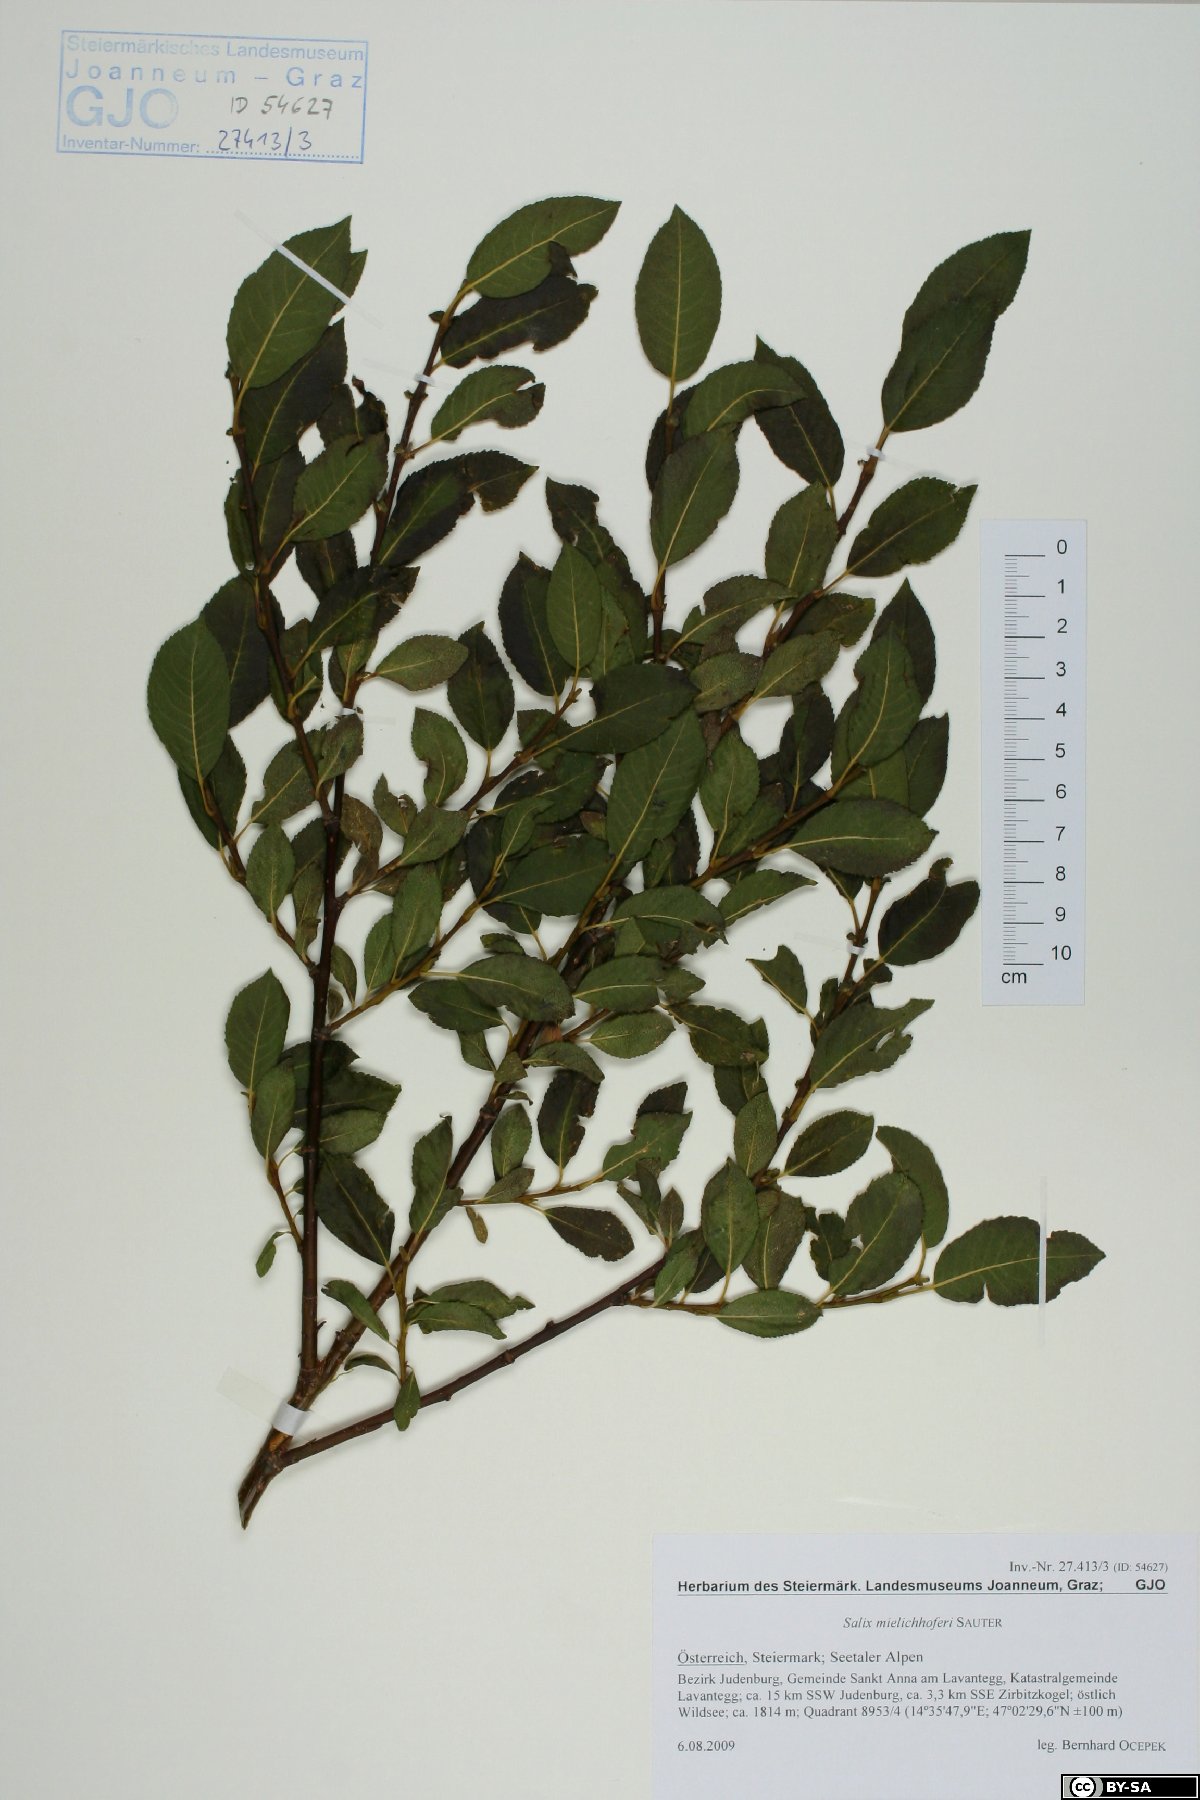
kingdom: Plantae
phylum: Tracheophyta
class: Magnoliopsida
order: Malpighiales
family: Salicaceae
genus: Salix
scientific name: Salix mielichhoferi
